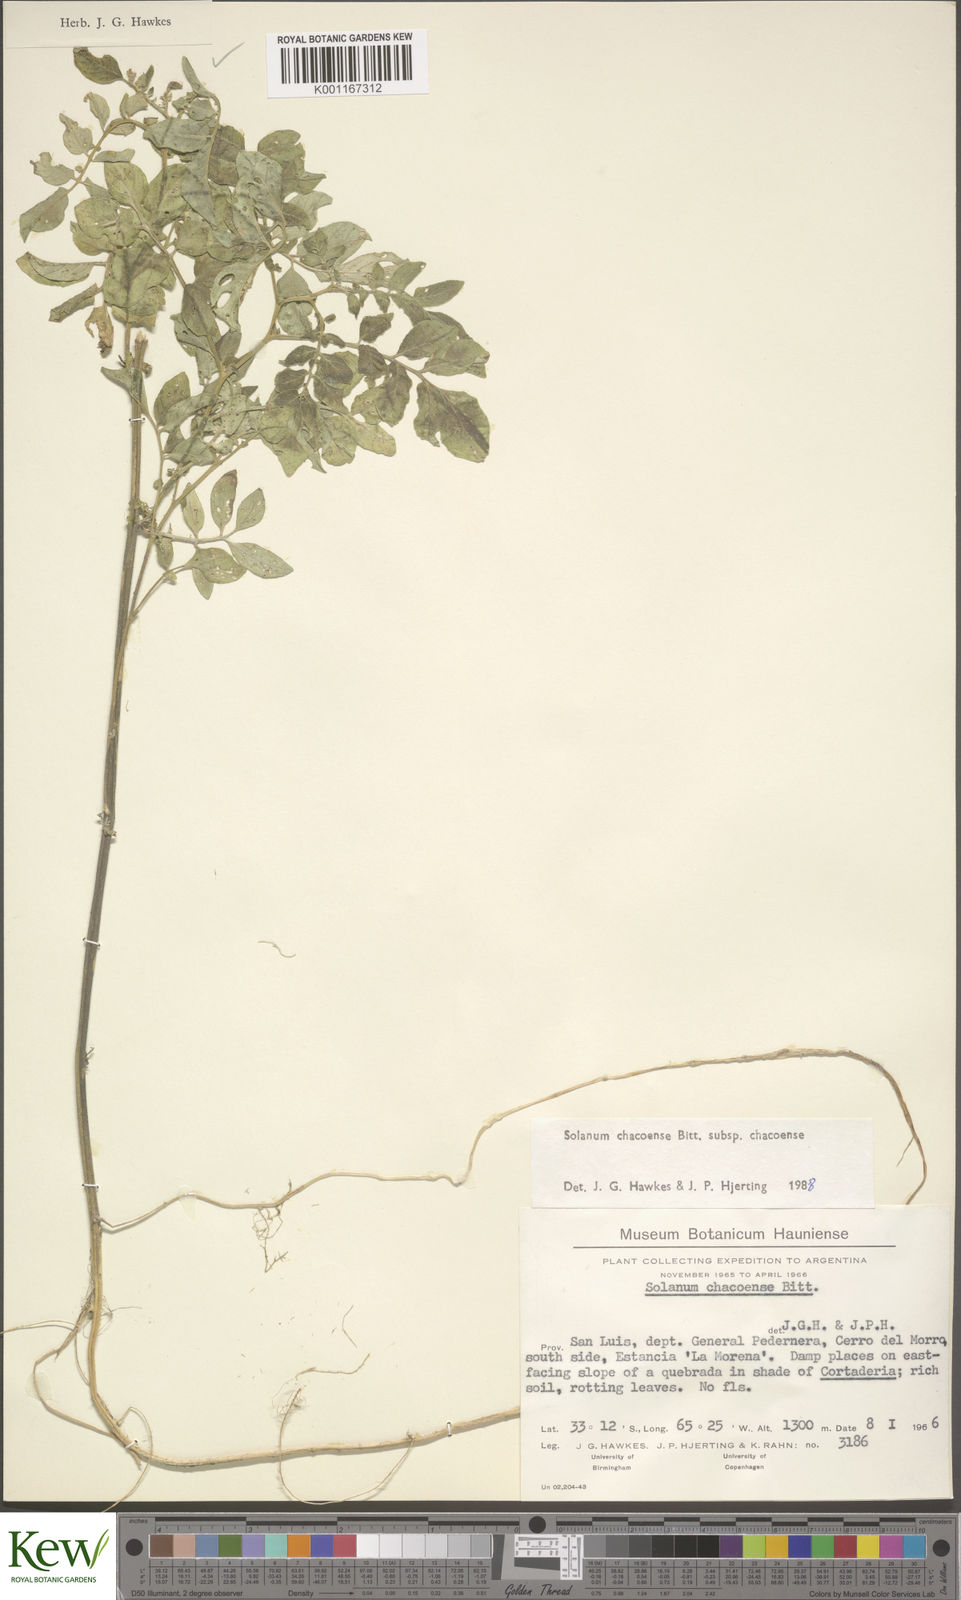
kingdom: Plantae
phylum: Tracheophyta
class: Magnoliopsida
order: Solanales
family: Solanaceae
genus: Solanum
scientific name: Solanum chacoense
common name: Chaco potato
